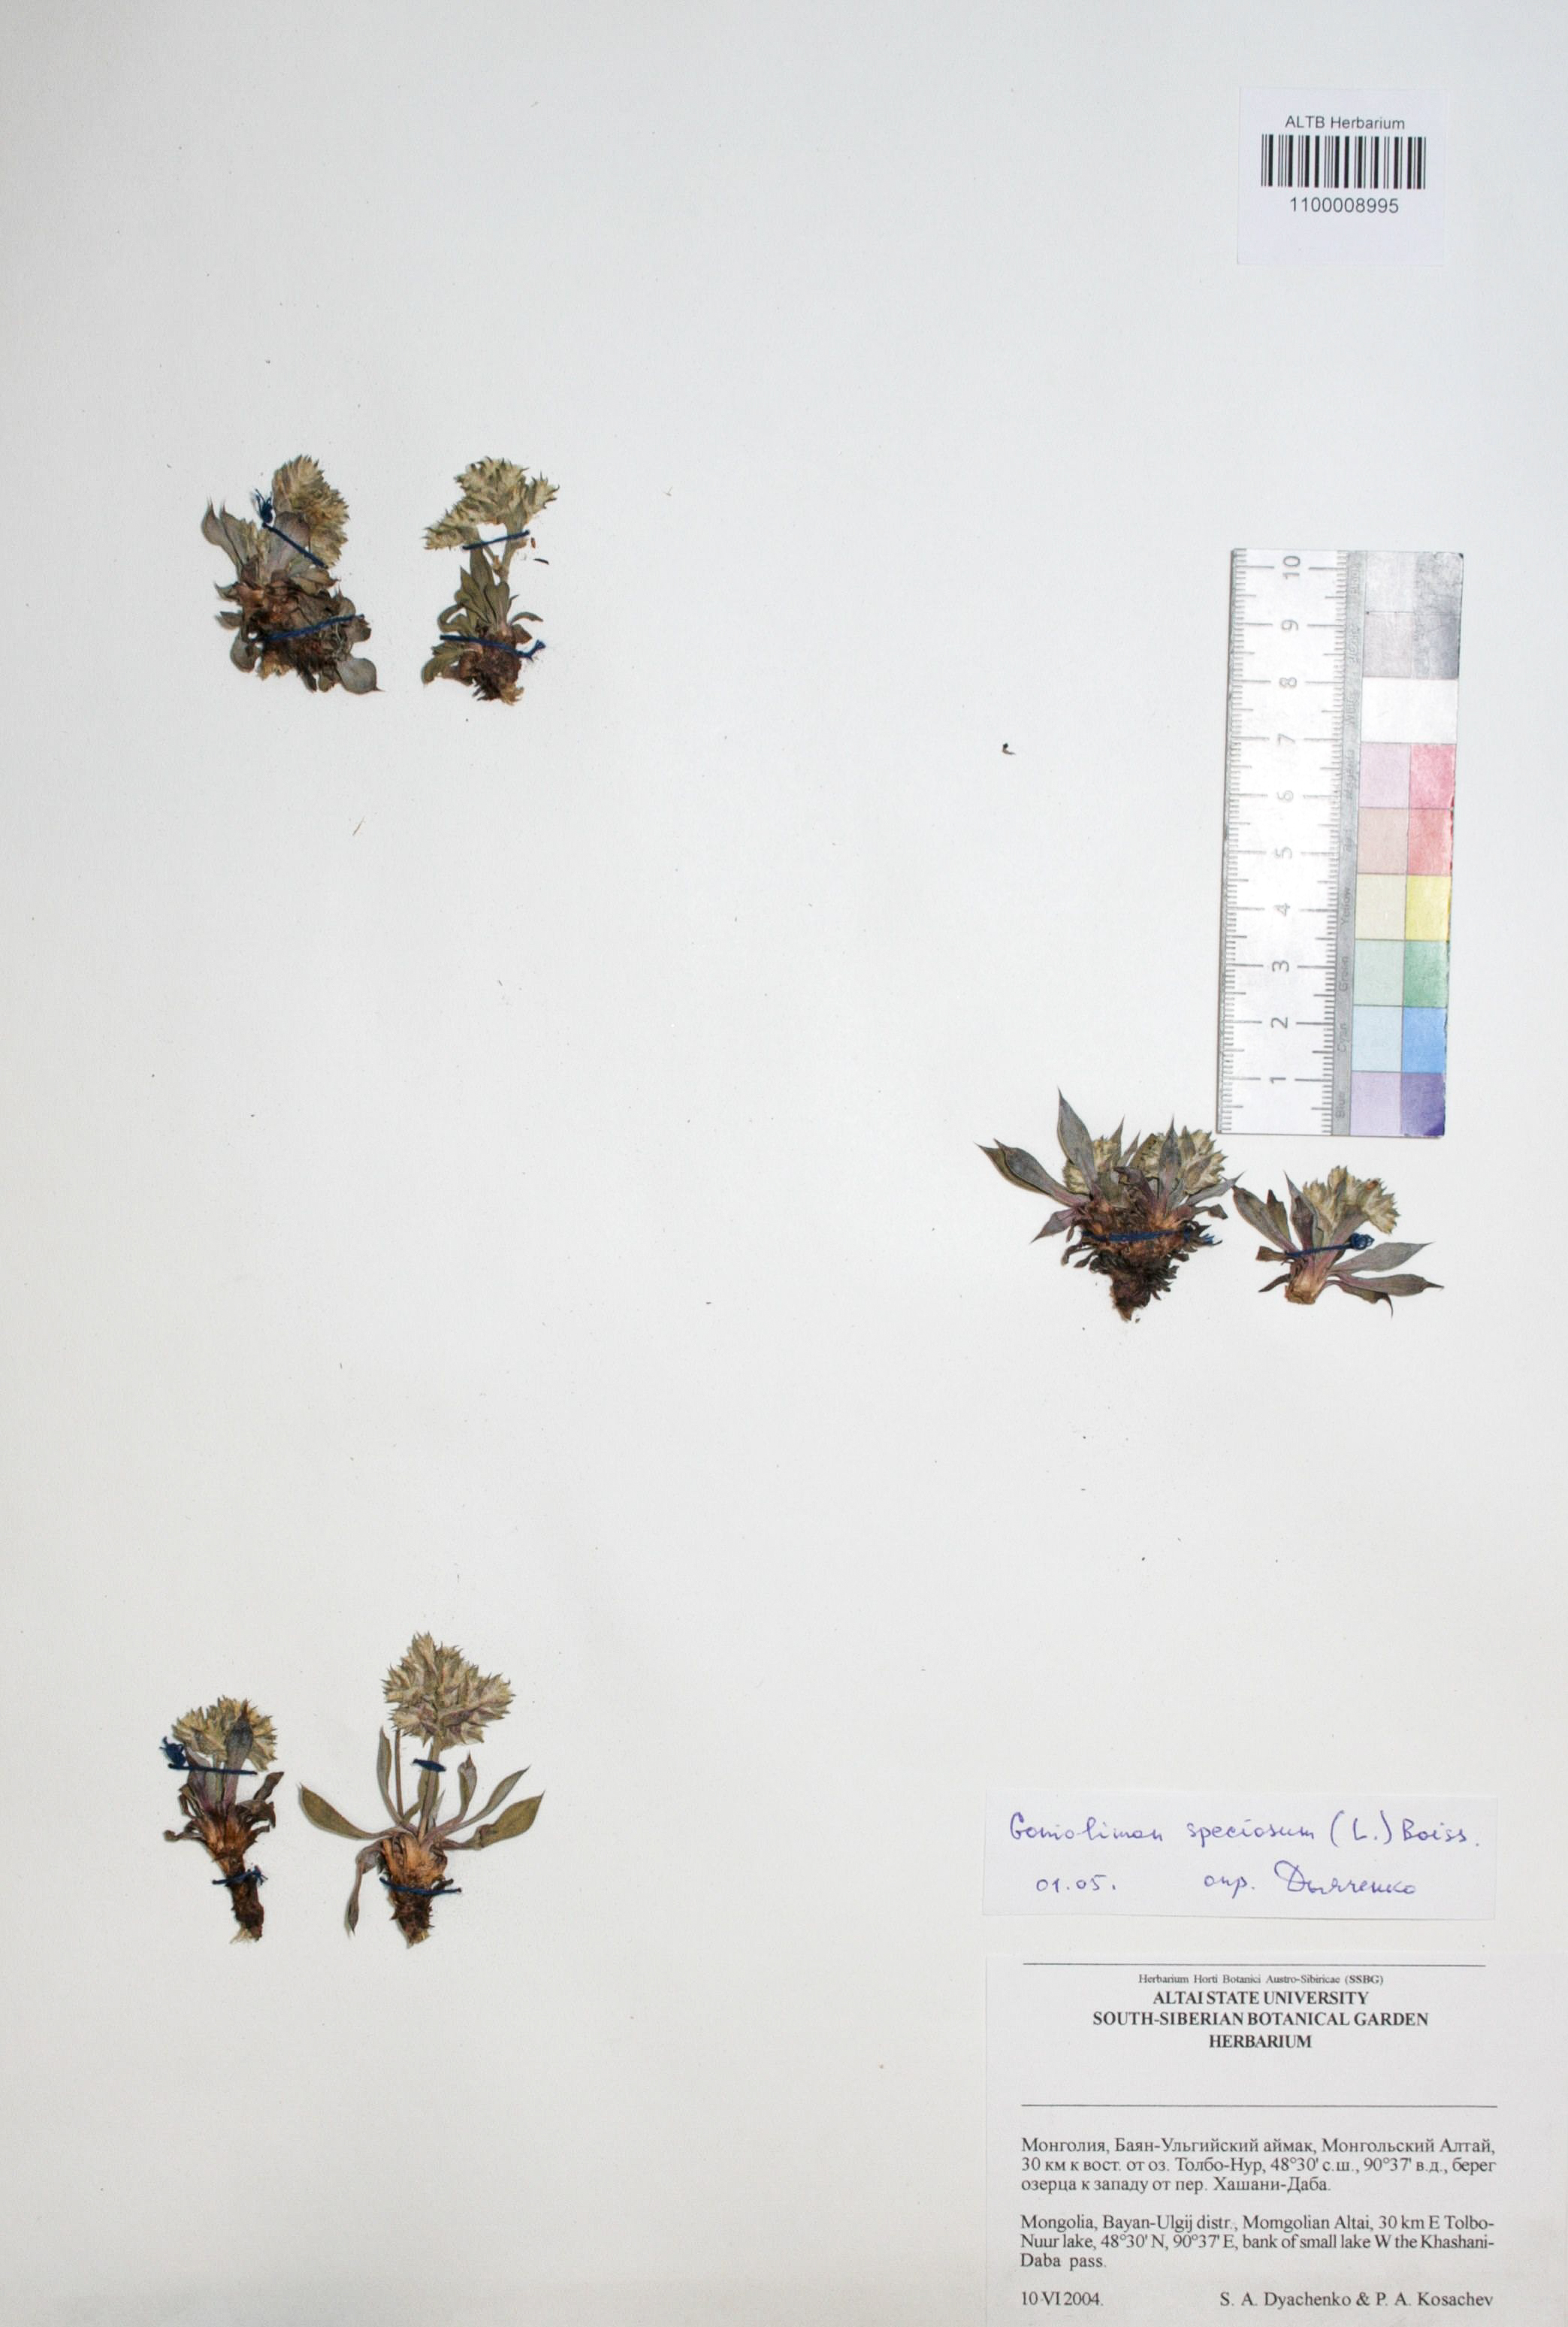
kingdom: Plantae
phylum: Tracheophyta
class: Magnoliopsida
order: Caryophyllales
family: Plumbaginaceae
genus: Goniolimon
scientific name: Goniolimon speciosum
